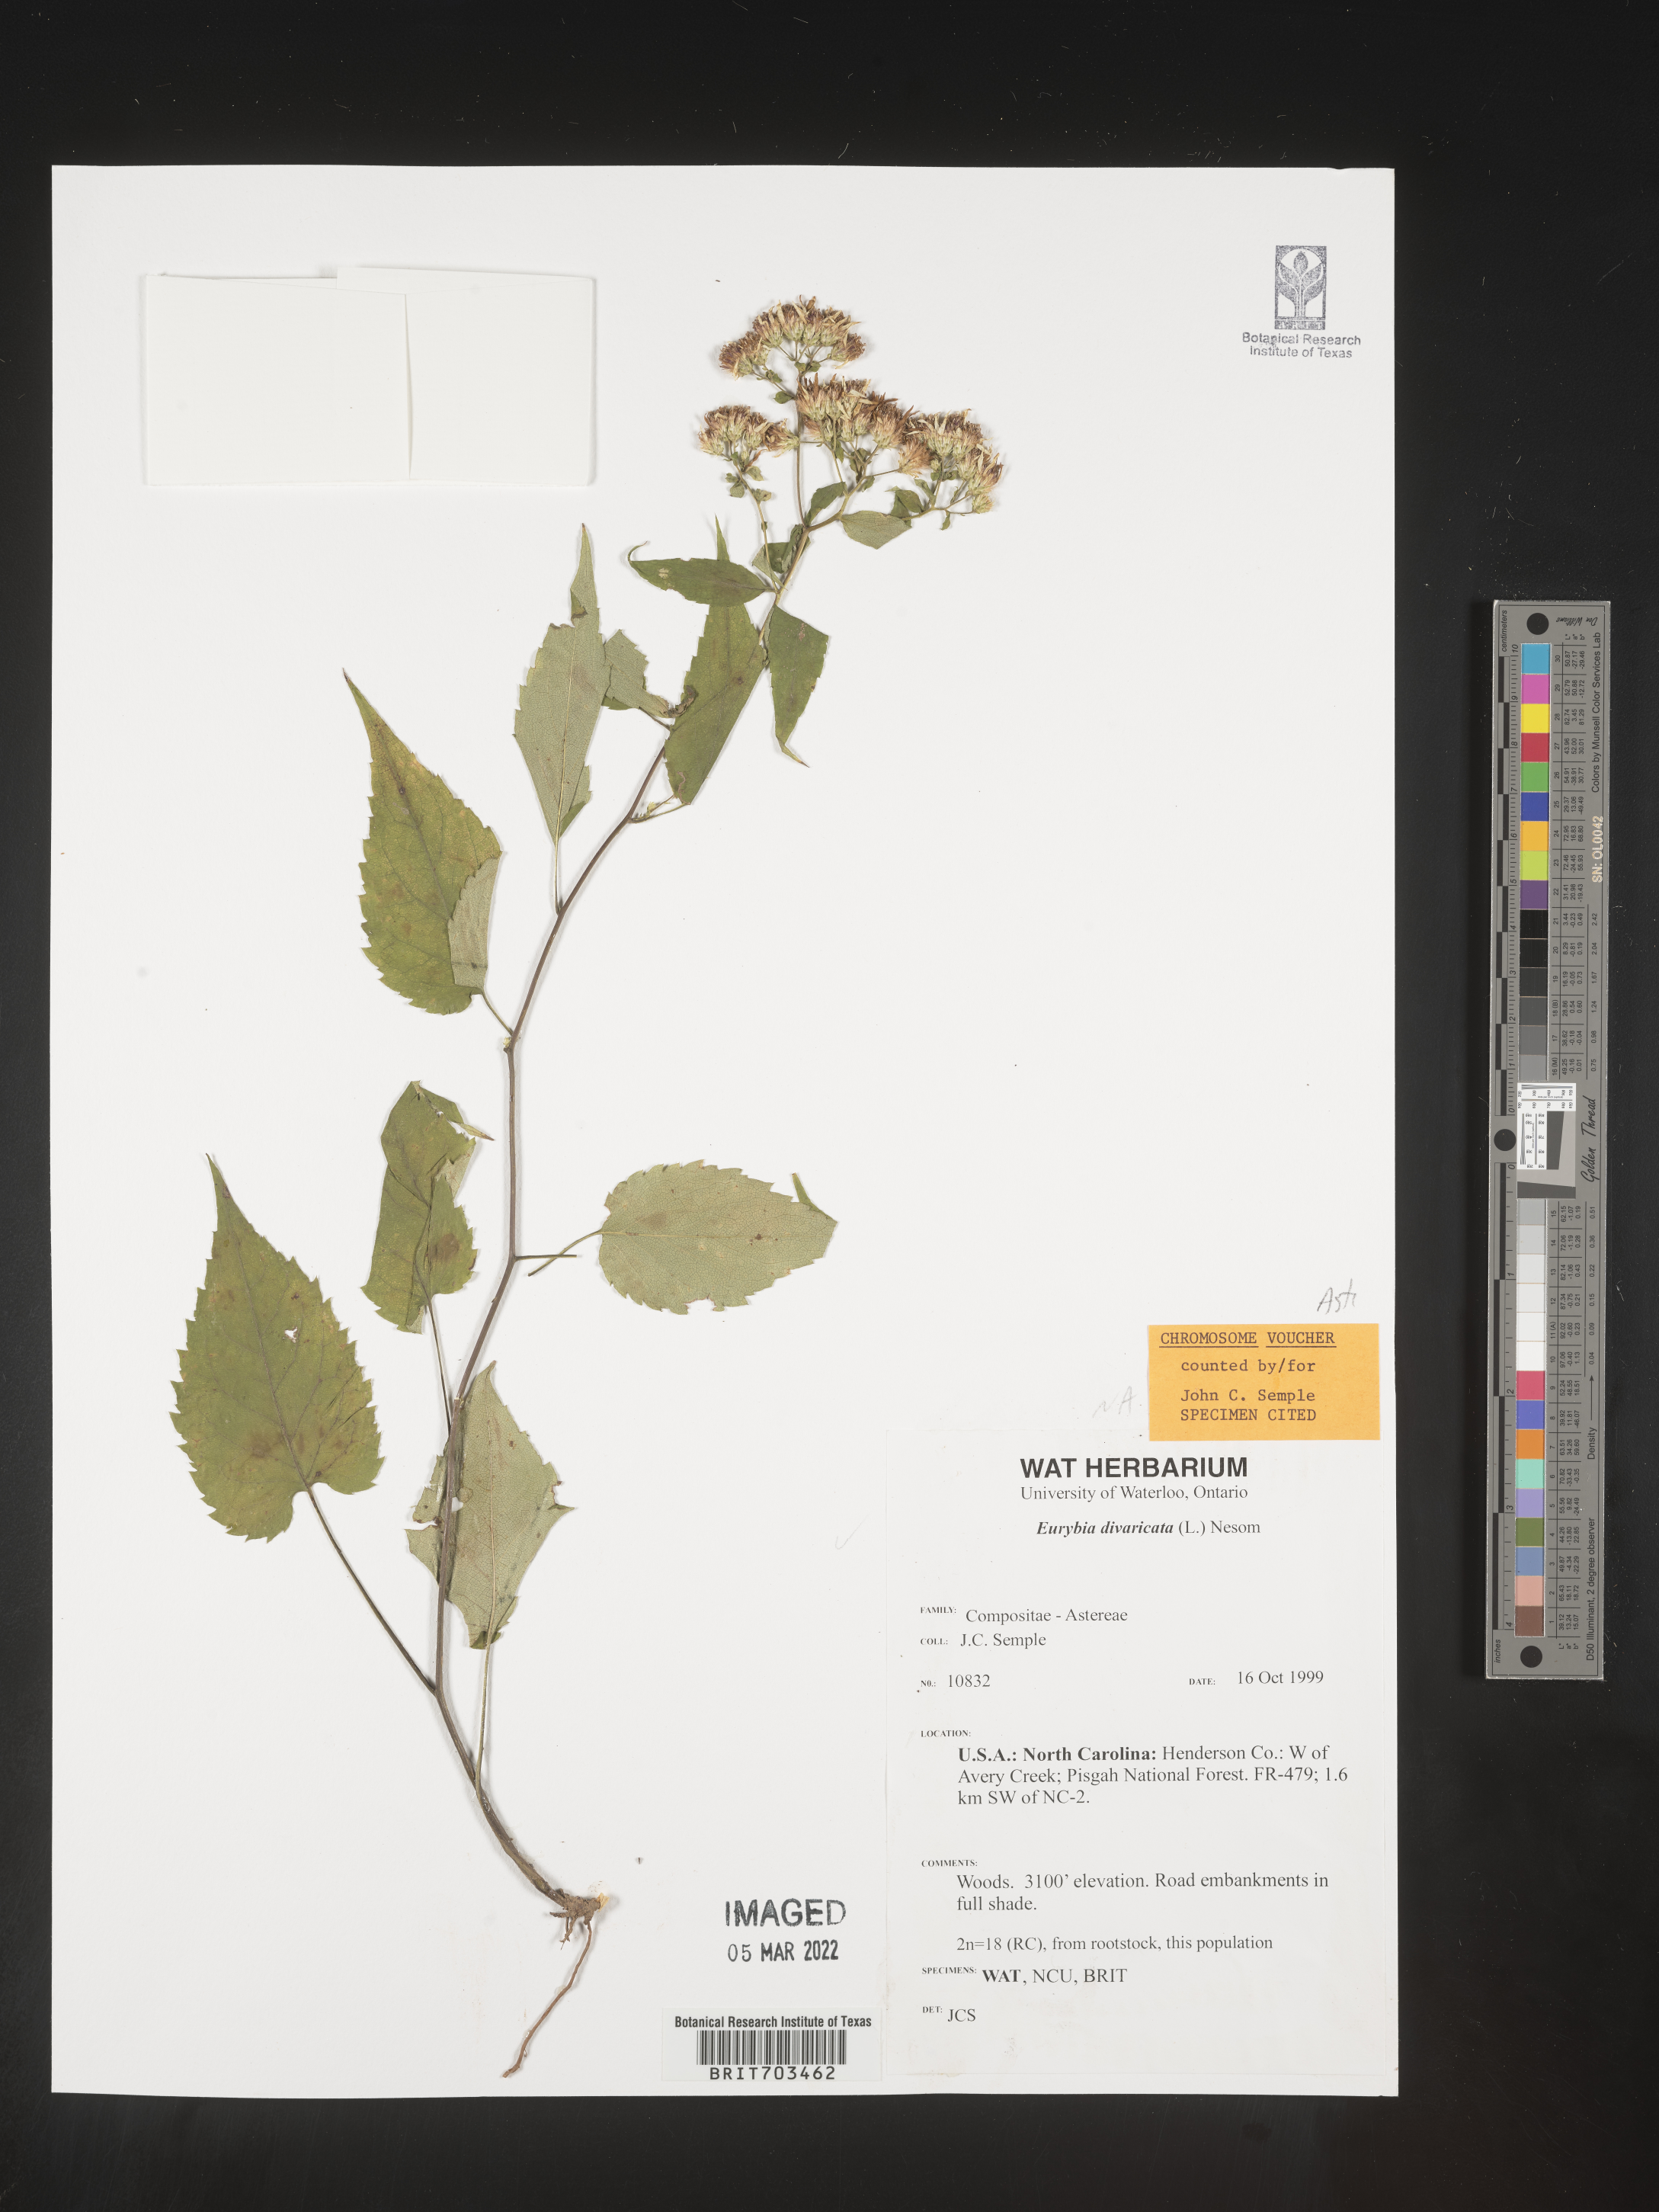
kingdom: Plantae
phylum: Tracheophyta
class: Magnoliopsida
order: Asterales
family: Asteraceae
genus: Eurybia
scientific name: Eurybia divaricata
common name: White wood aster
